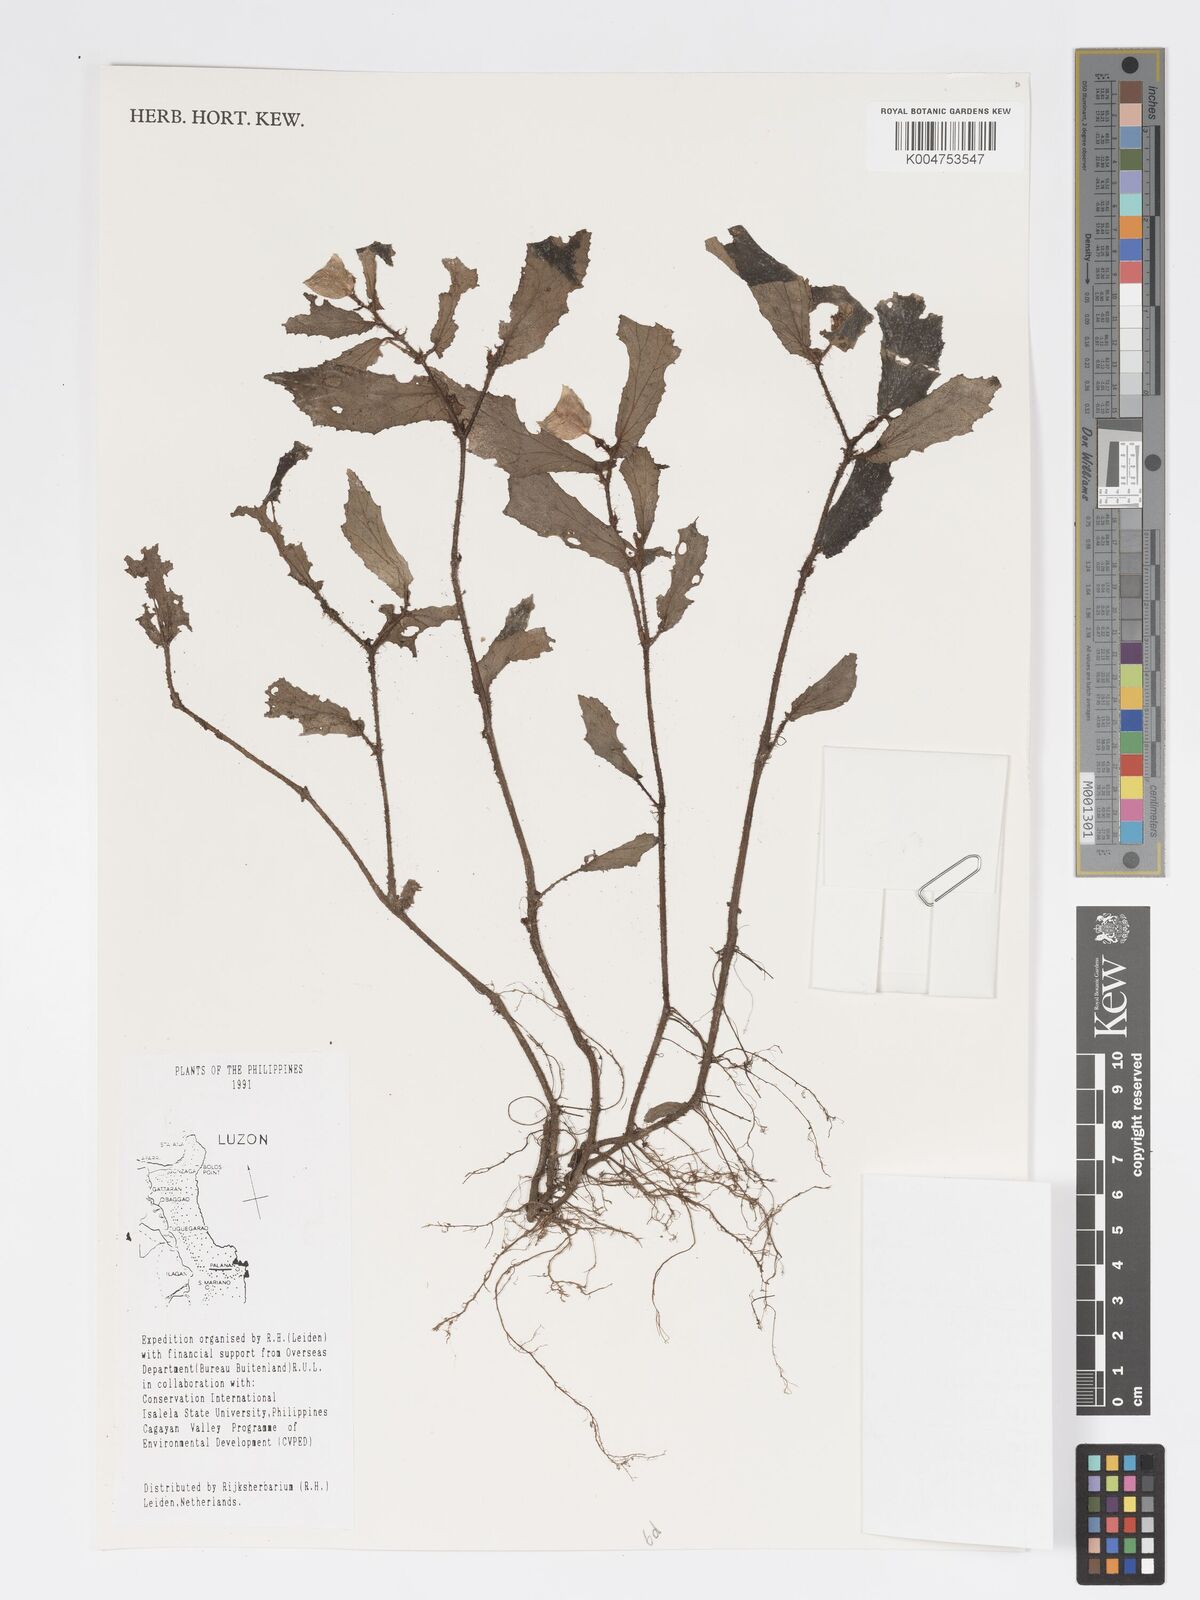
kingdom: Plantae
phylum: Tracheophyta
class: Magnoliopsida
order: Cucurbitales
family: Begoniaceae
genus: Begonia
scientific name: Begonia
